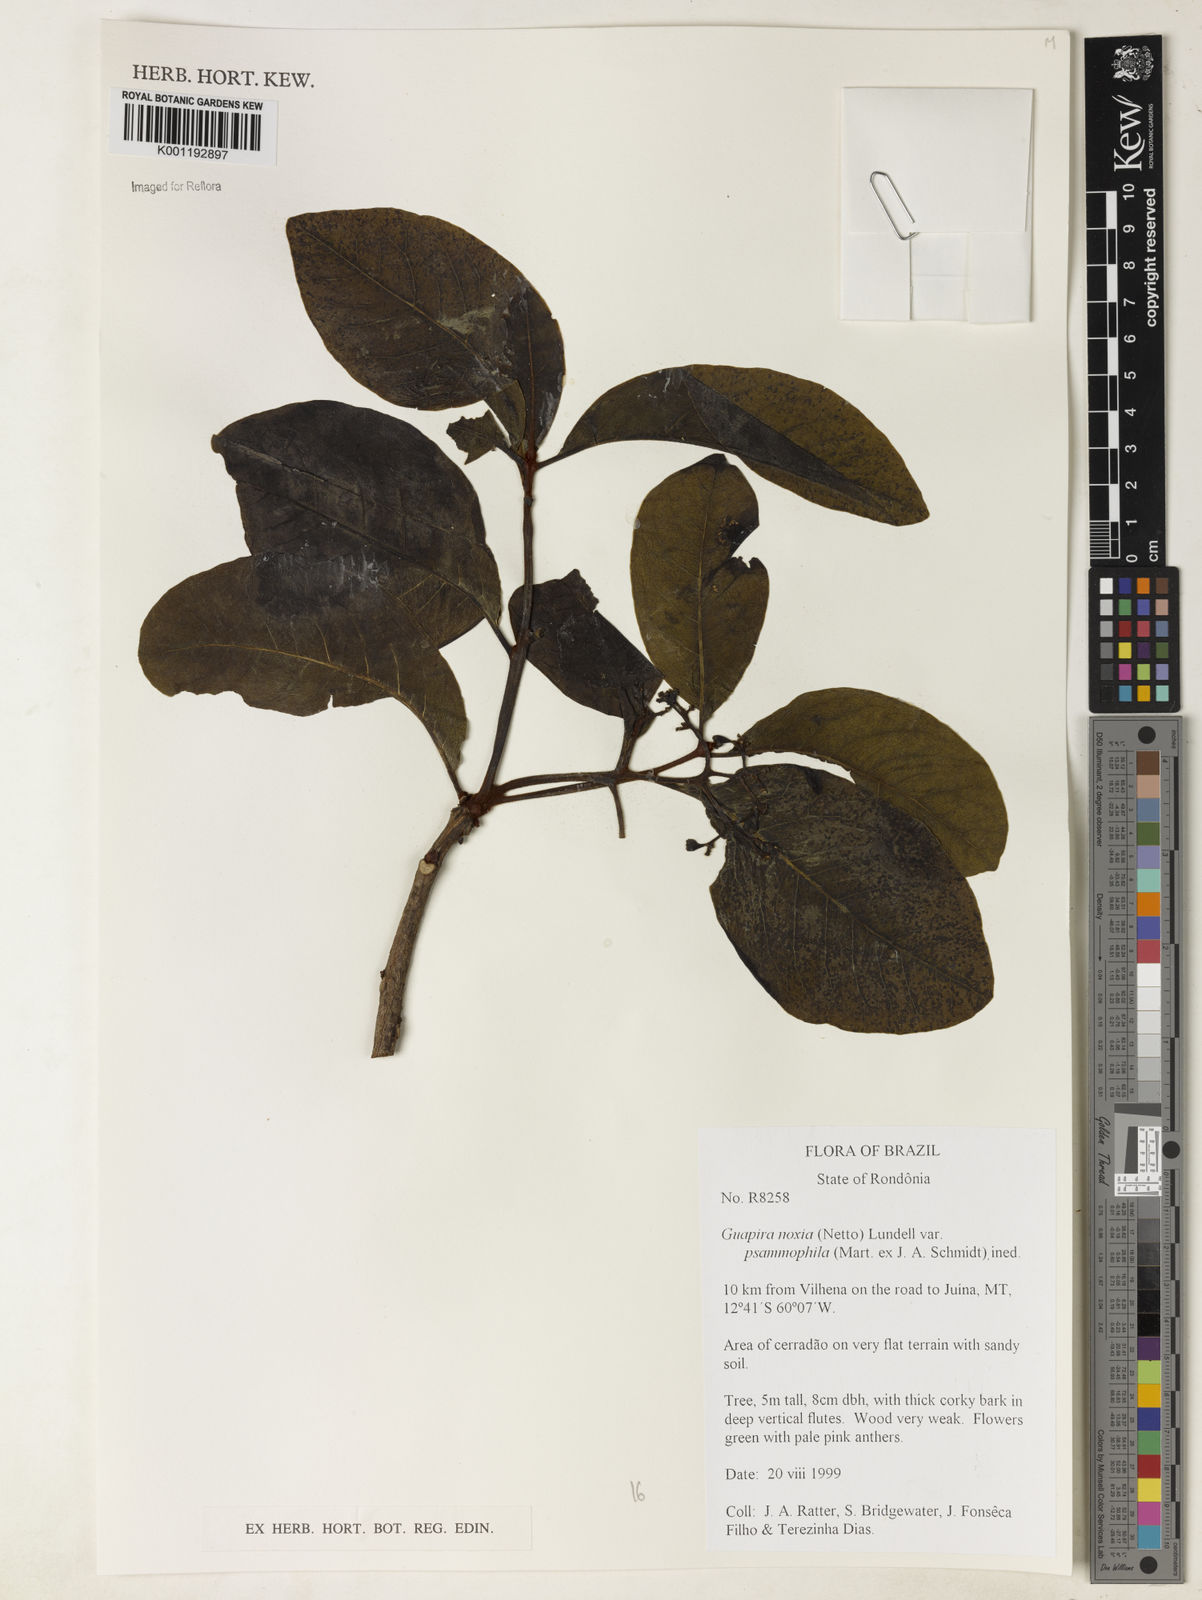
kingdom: Plantae
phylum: Tracheophyta
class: Magnoliopsida
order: Caryophyllales
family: Nyctaginaceae
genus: Guapira
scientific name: Guapira noxia
